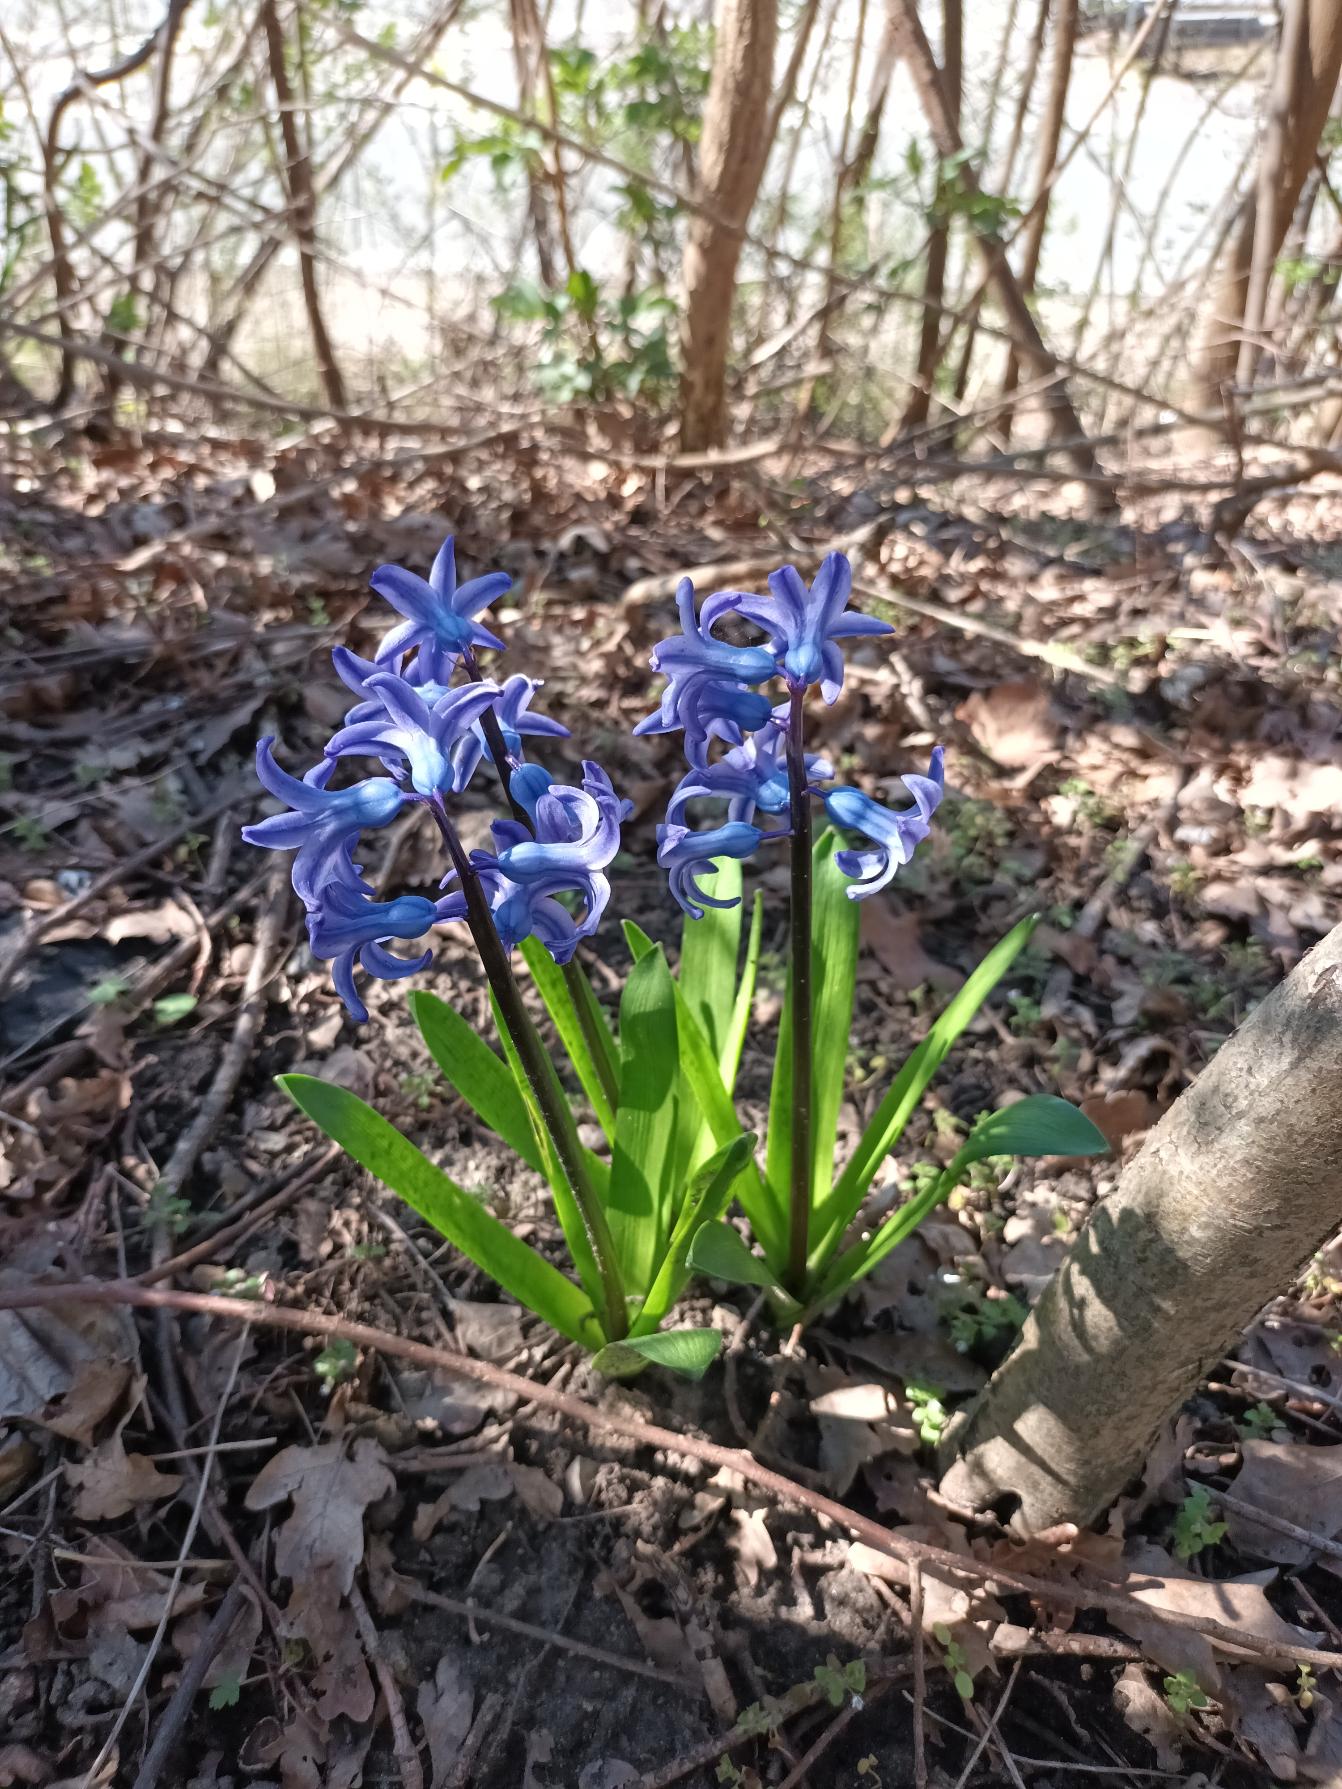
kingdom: Plantae
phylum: Tracheophyta
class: Liliopsida
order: Asparagales
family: Asparagaceae
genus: Hyacinthus
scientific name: Hyacinthus orientalis
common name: Hyacint
